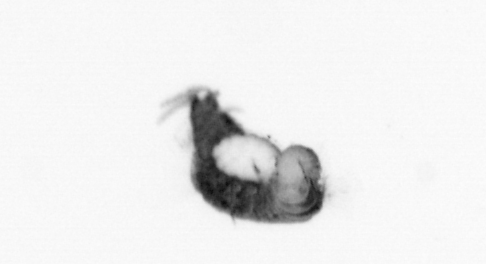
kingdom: Animalia
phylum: Annelida
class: Polychaeta
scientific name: Polychaeta
